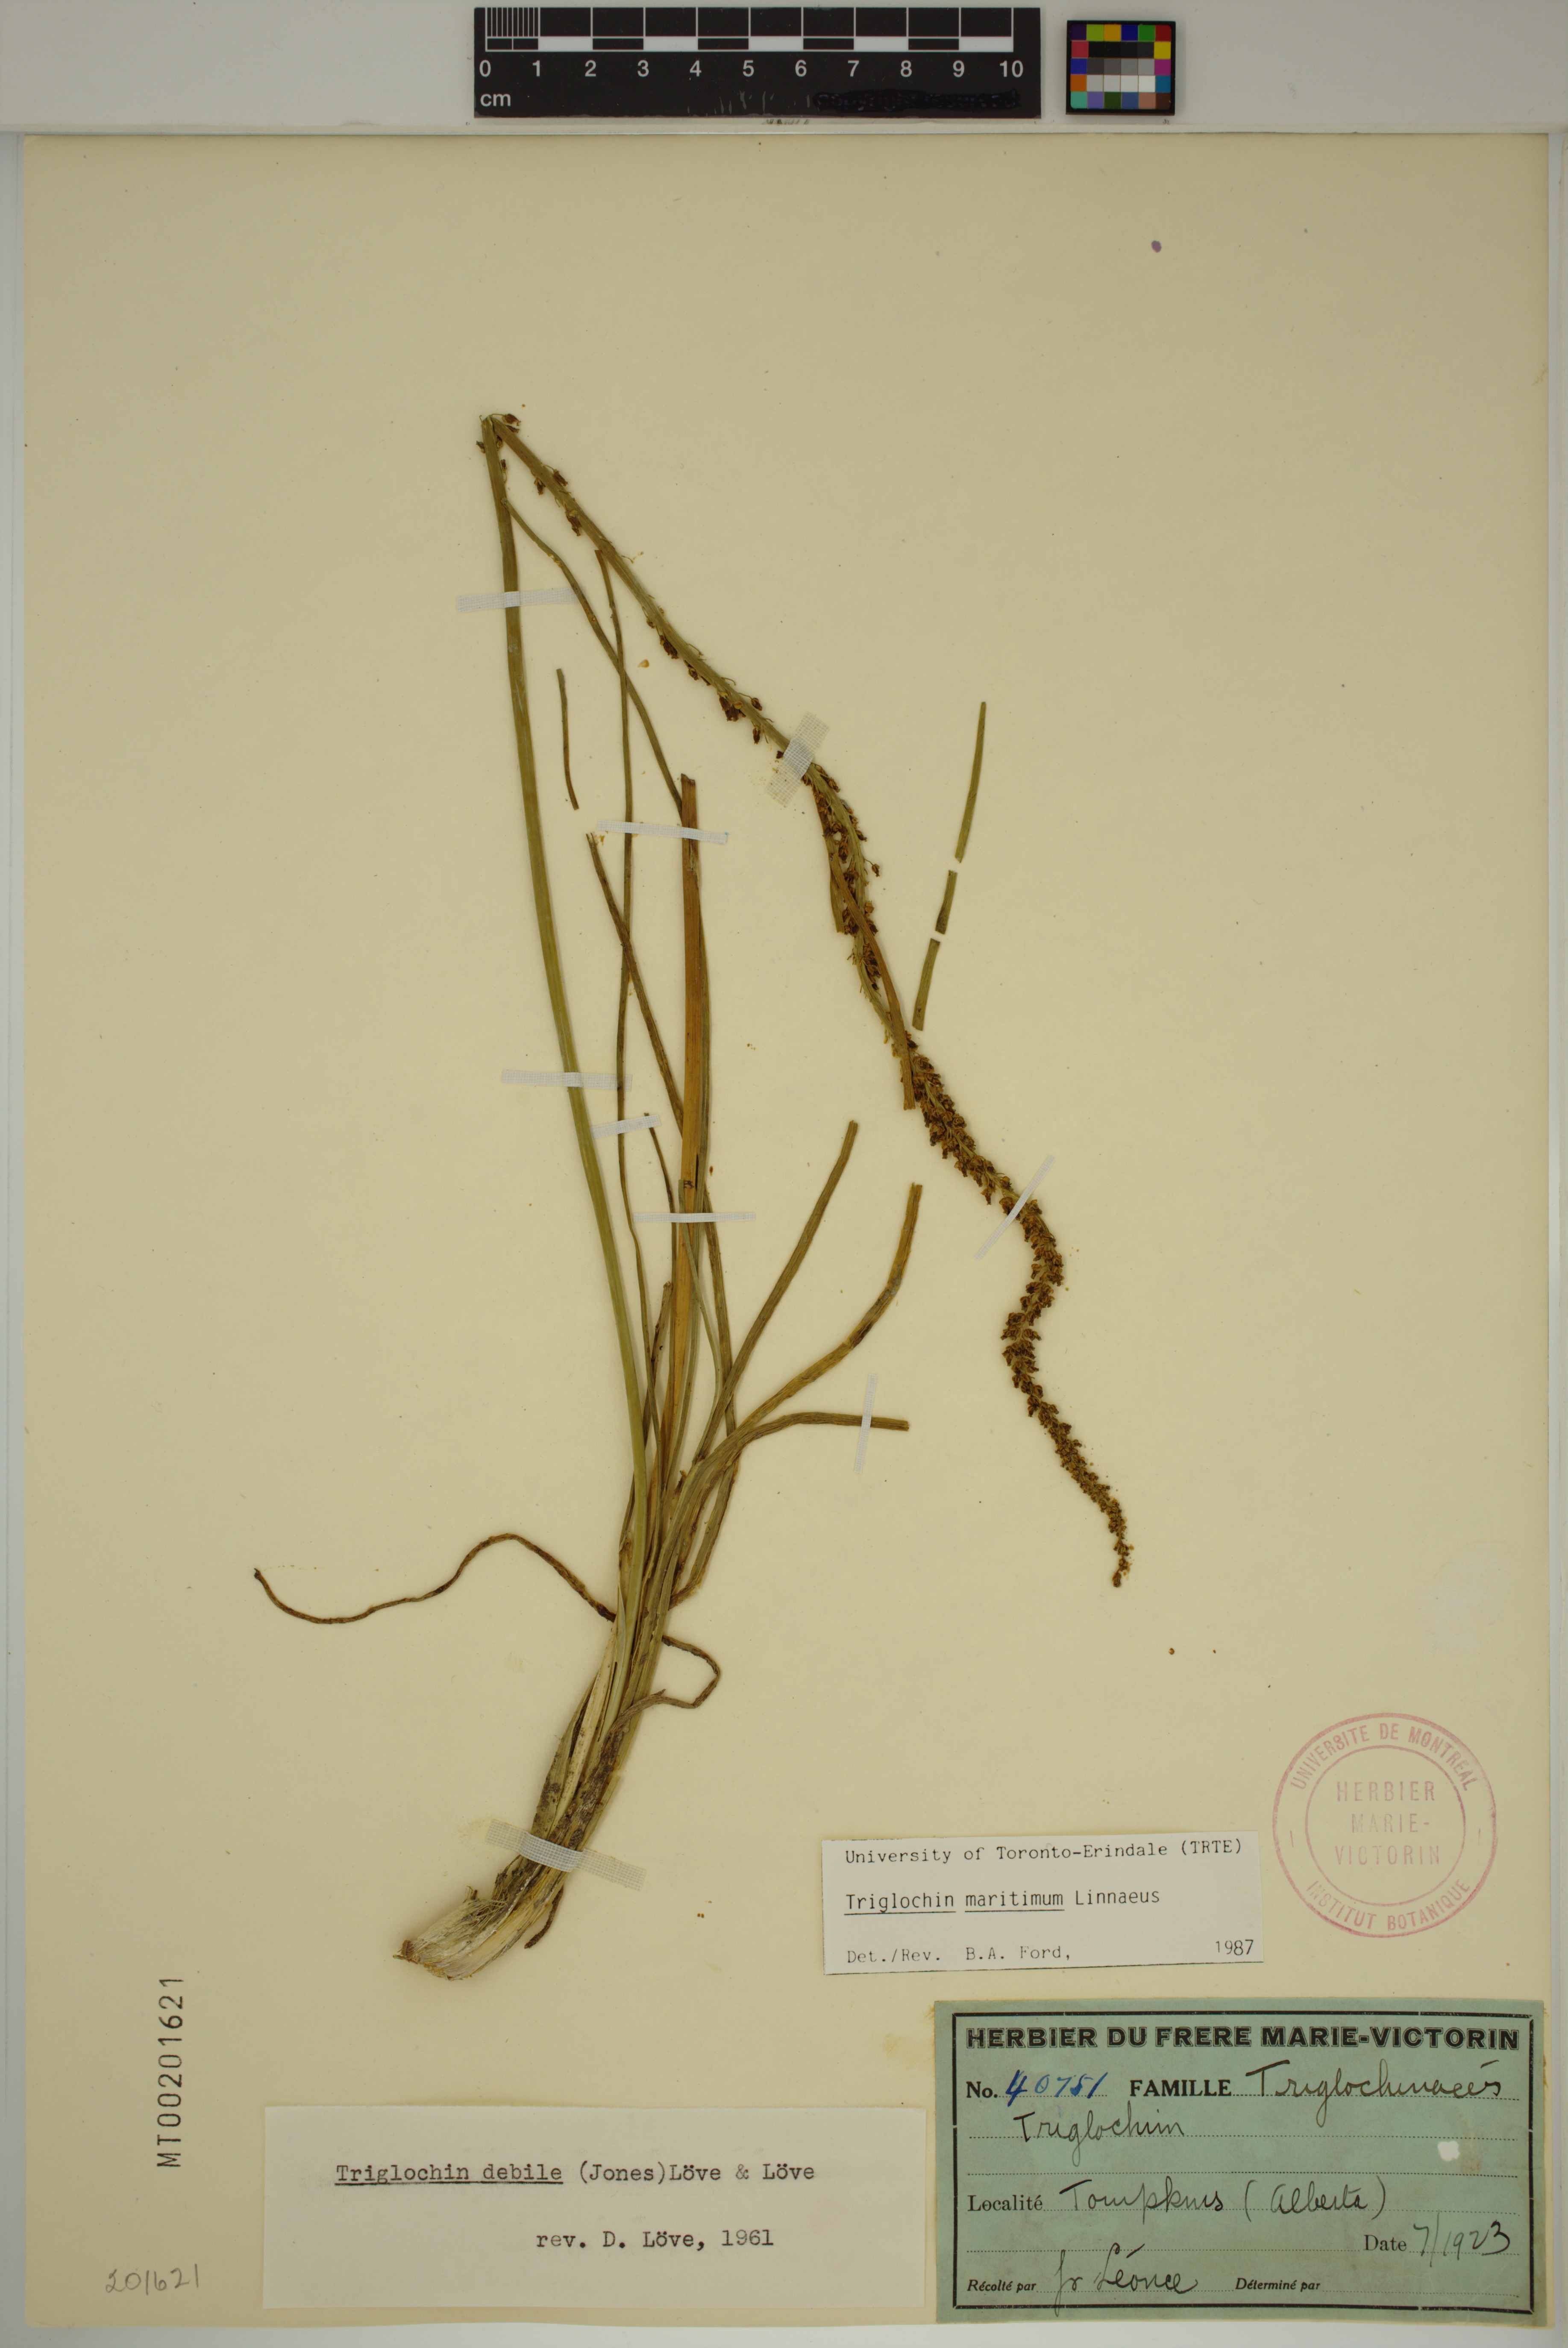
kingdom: Plantae
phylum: Tracheophyta
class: Liliopsida
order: Alismatales
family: Juncaginaceae
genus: Triglochin
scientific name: Triglochin maritima
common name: Sea arrowgrass
